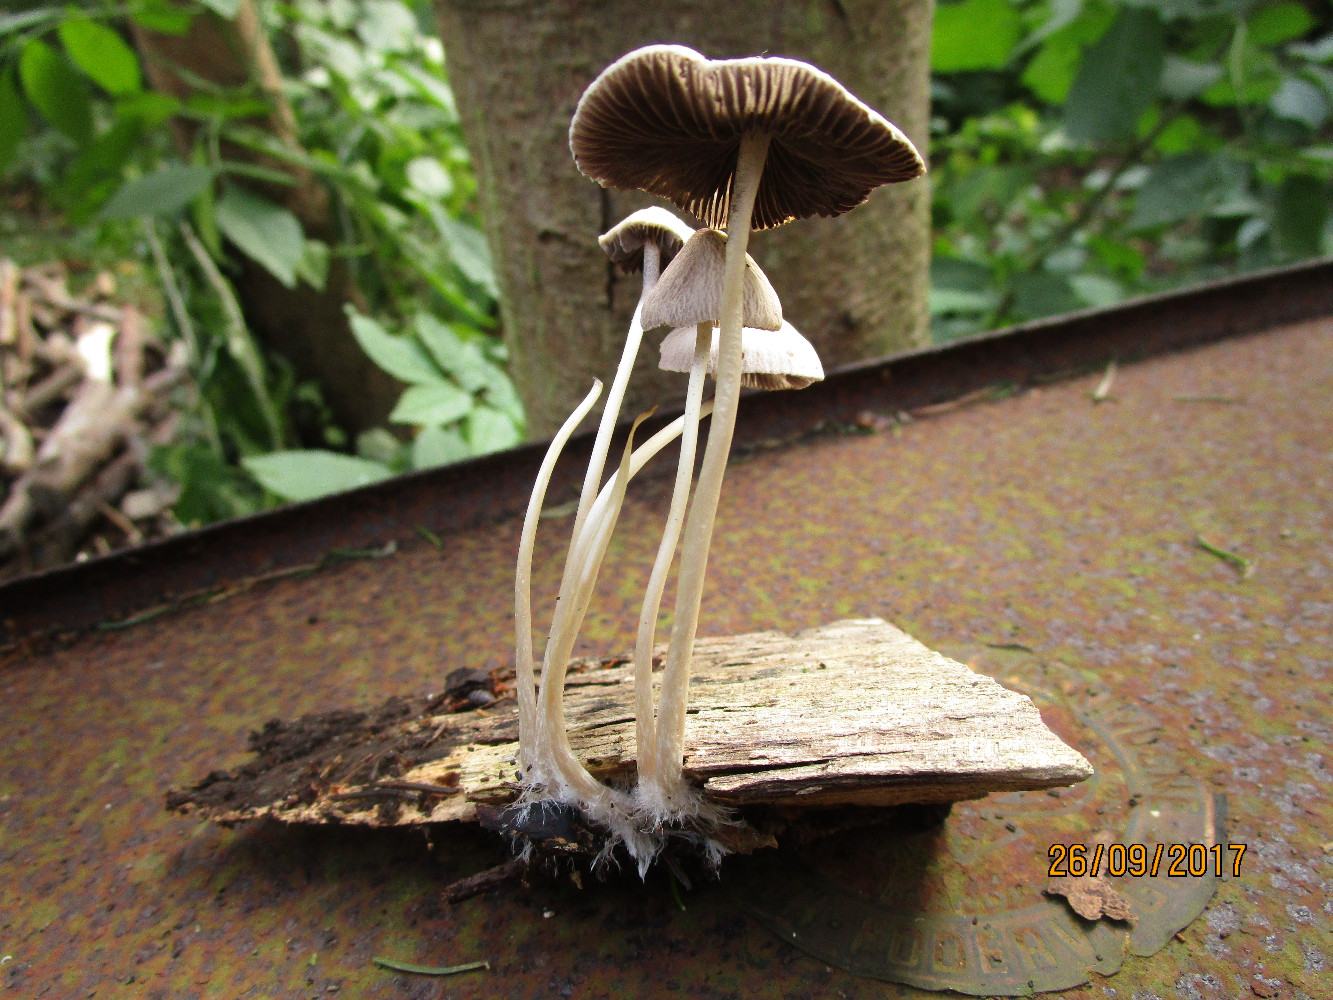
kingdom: Fungi
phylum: Basidiomycota
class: Agaricomycetes
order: Agaricales
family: Psathyrellaceae
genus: Psathyrella
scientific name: Psathyrella
